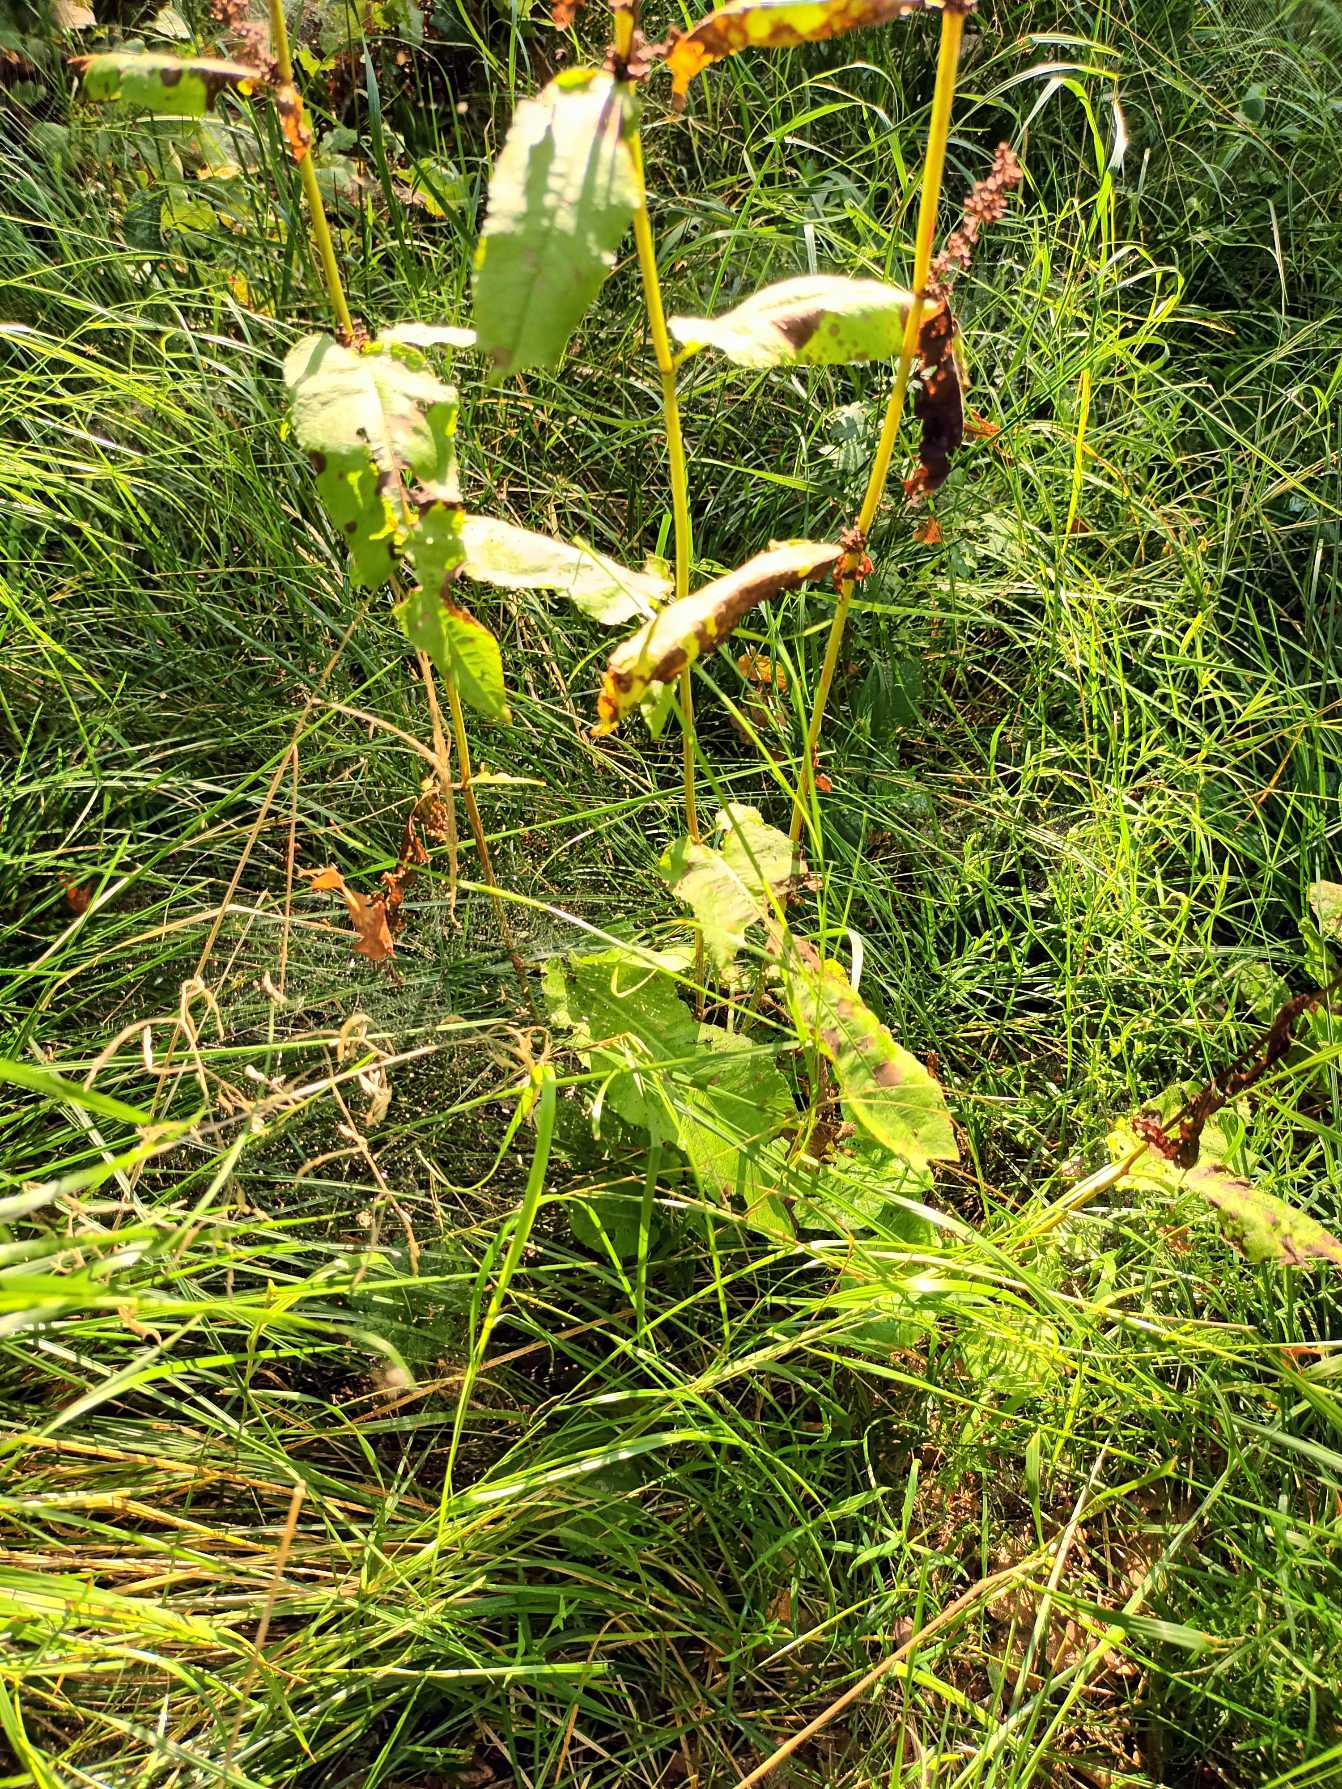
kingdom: Plantae
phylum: Tracheophyta
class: Magnoliopsida
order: Caryophyllales
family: Polygonaceae
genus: Rumex
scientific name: Rumex sanguineus
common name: Skov-skræppe
